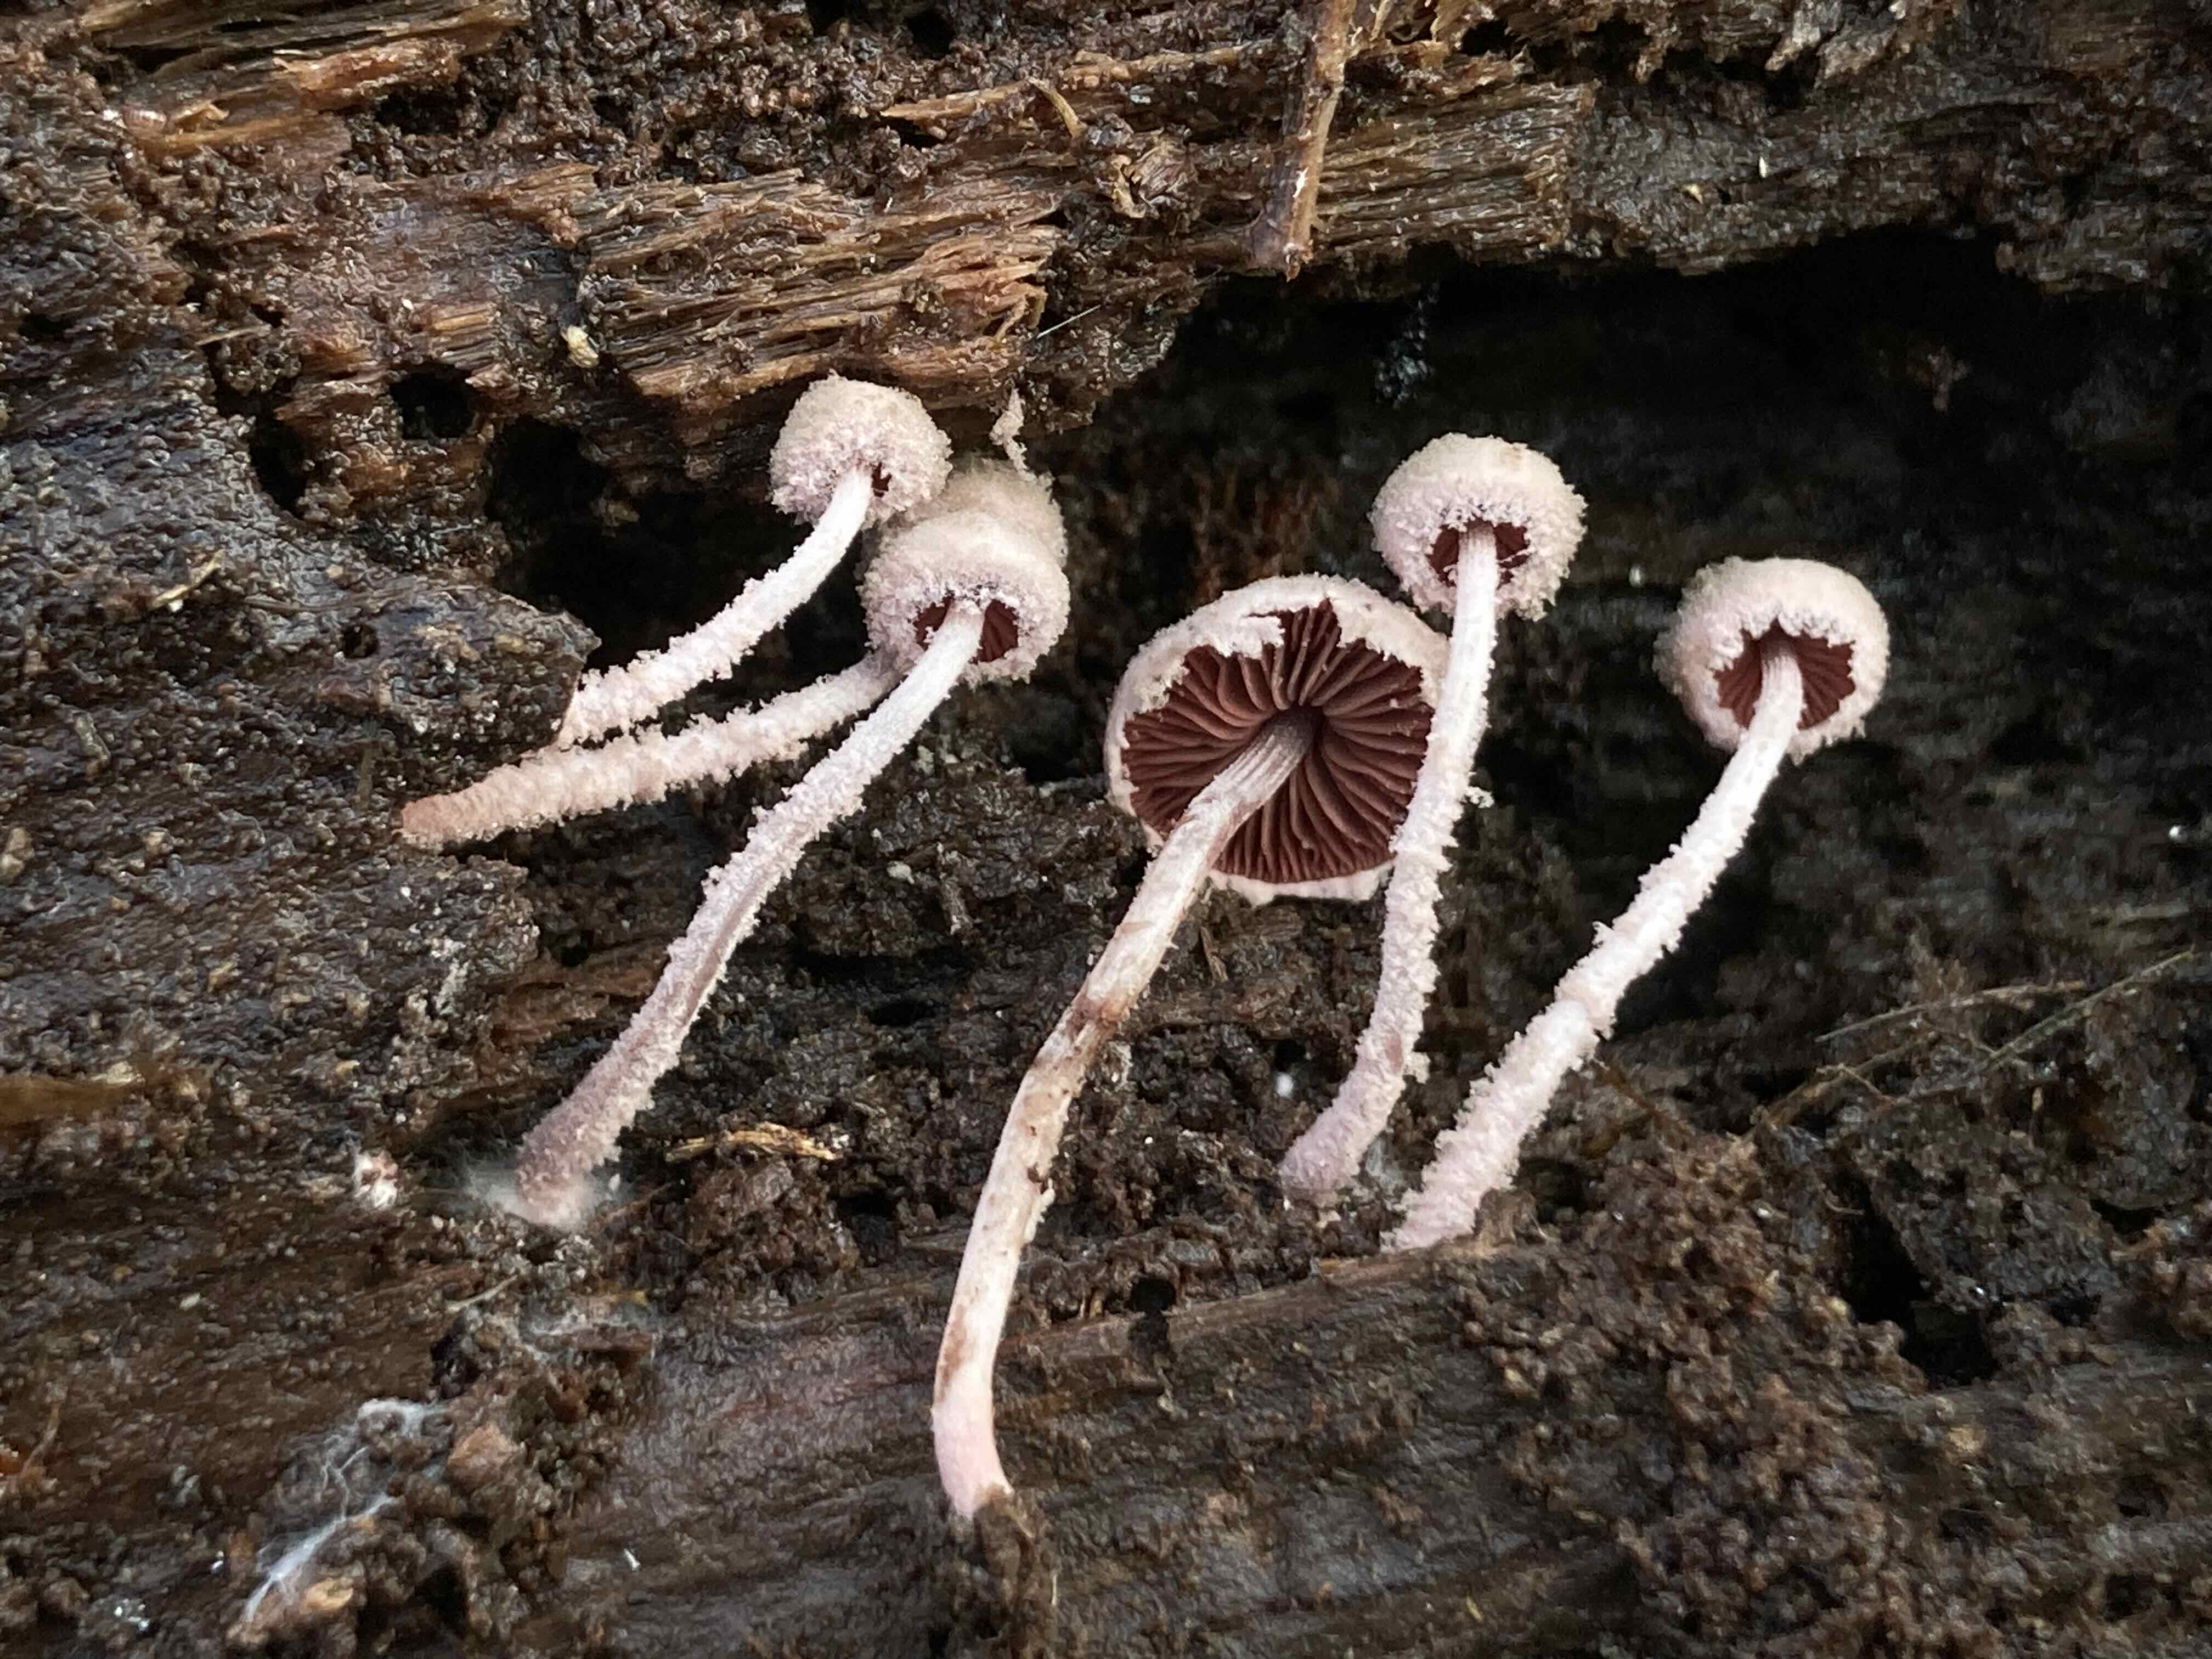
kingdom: Fungi
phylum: Basidiomycota
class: Agaricomycetes
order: Agaricales
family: Agaricaceae
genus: Melanophyllum
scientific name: Melanophyllum haematospermum
